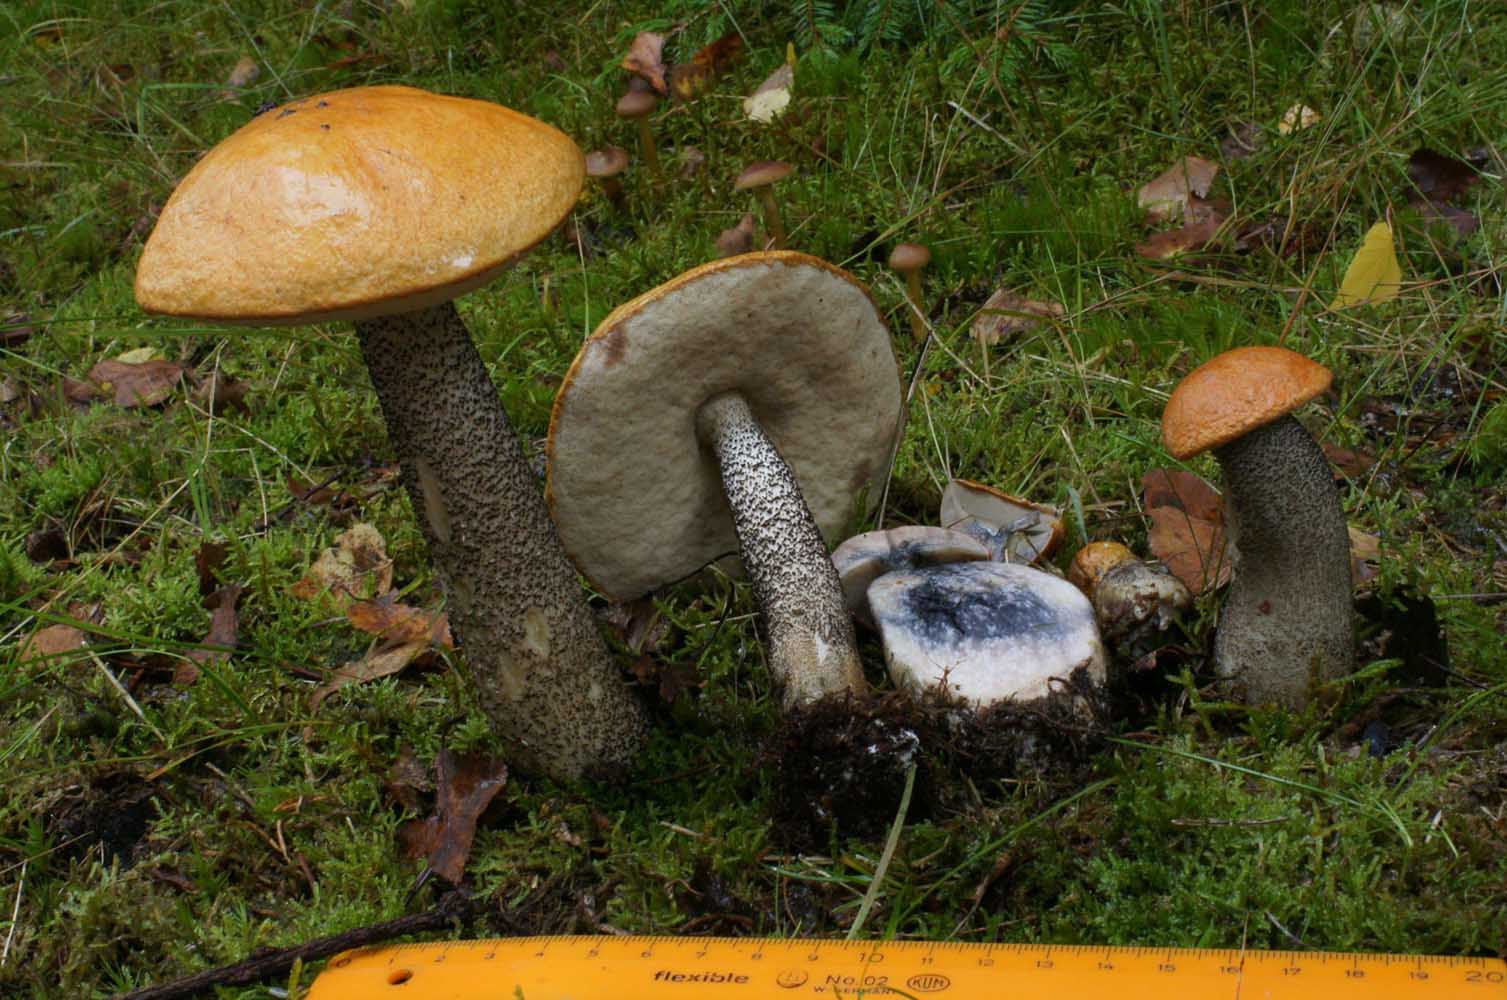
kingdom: Fungi
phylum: Basidiomycota
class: Agaricomycetes
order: Boletales
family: Boletaceae
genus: Leccinum
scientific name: Leccinum versipelle
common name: orange skælrørhat
